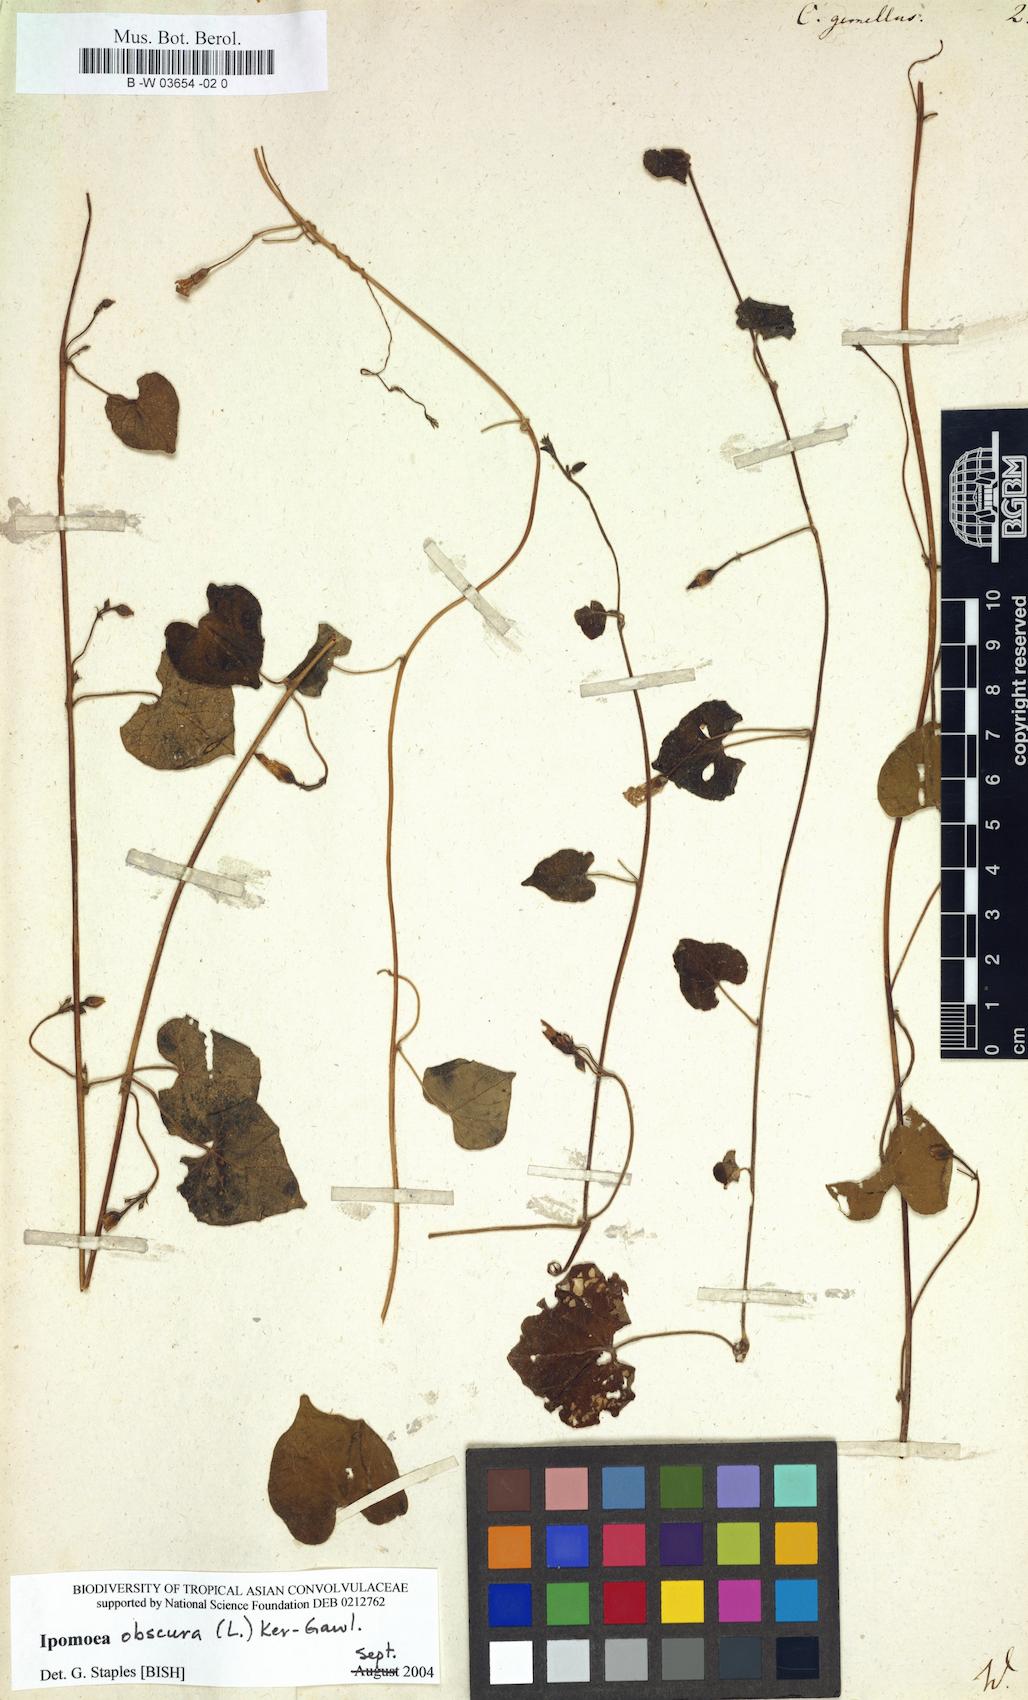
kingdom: Plantae
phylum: Tracheophyta
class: Magnoliopsida
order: Solanales
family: Convolvulaceae
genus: Merremia
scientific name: Merremia gemella
